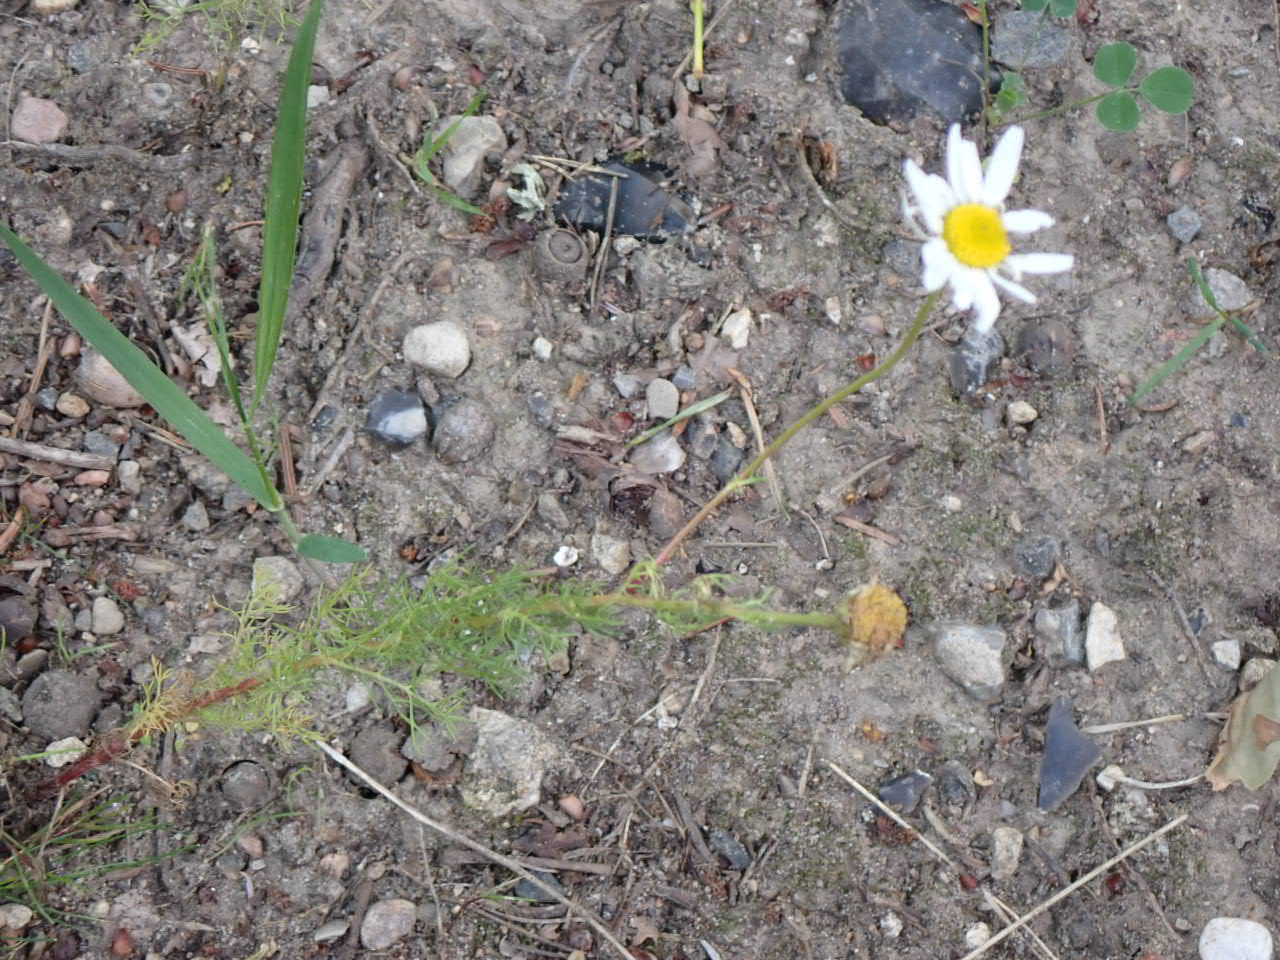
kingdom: Plantae
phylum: Tracheophyta
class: Magnoliopsida
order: Asterales
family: Asteraceae
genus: Tripleurospermum
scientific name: Tripleurospermum inodorum
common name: Lugtløs kamille
